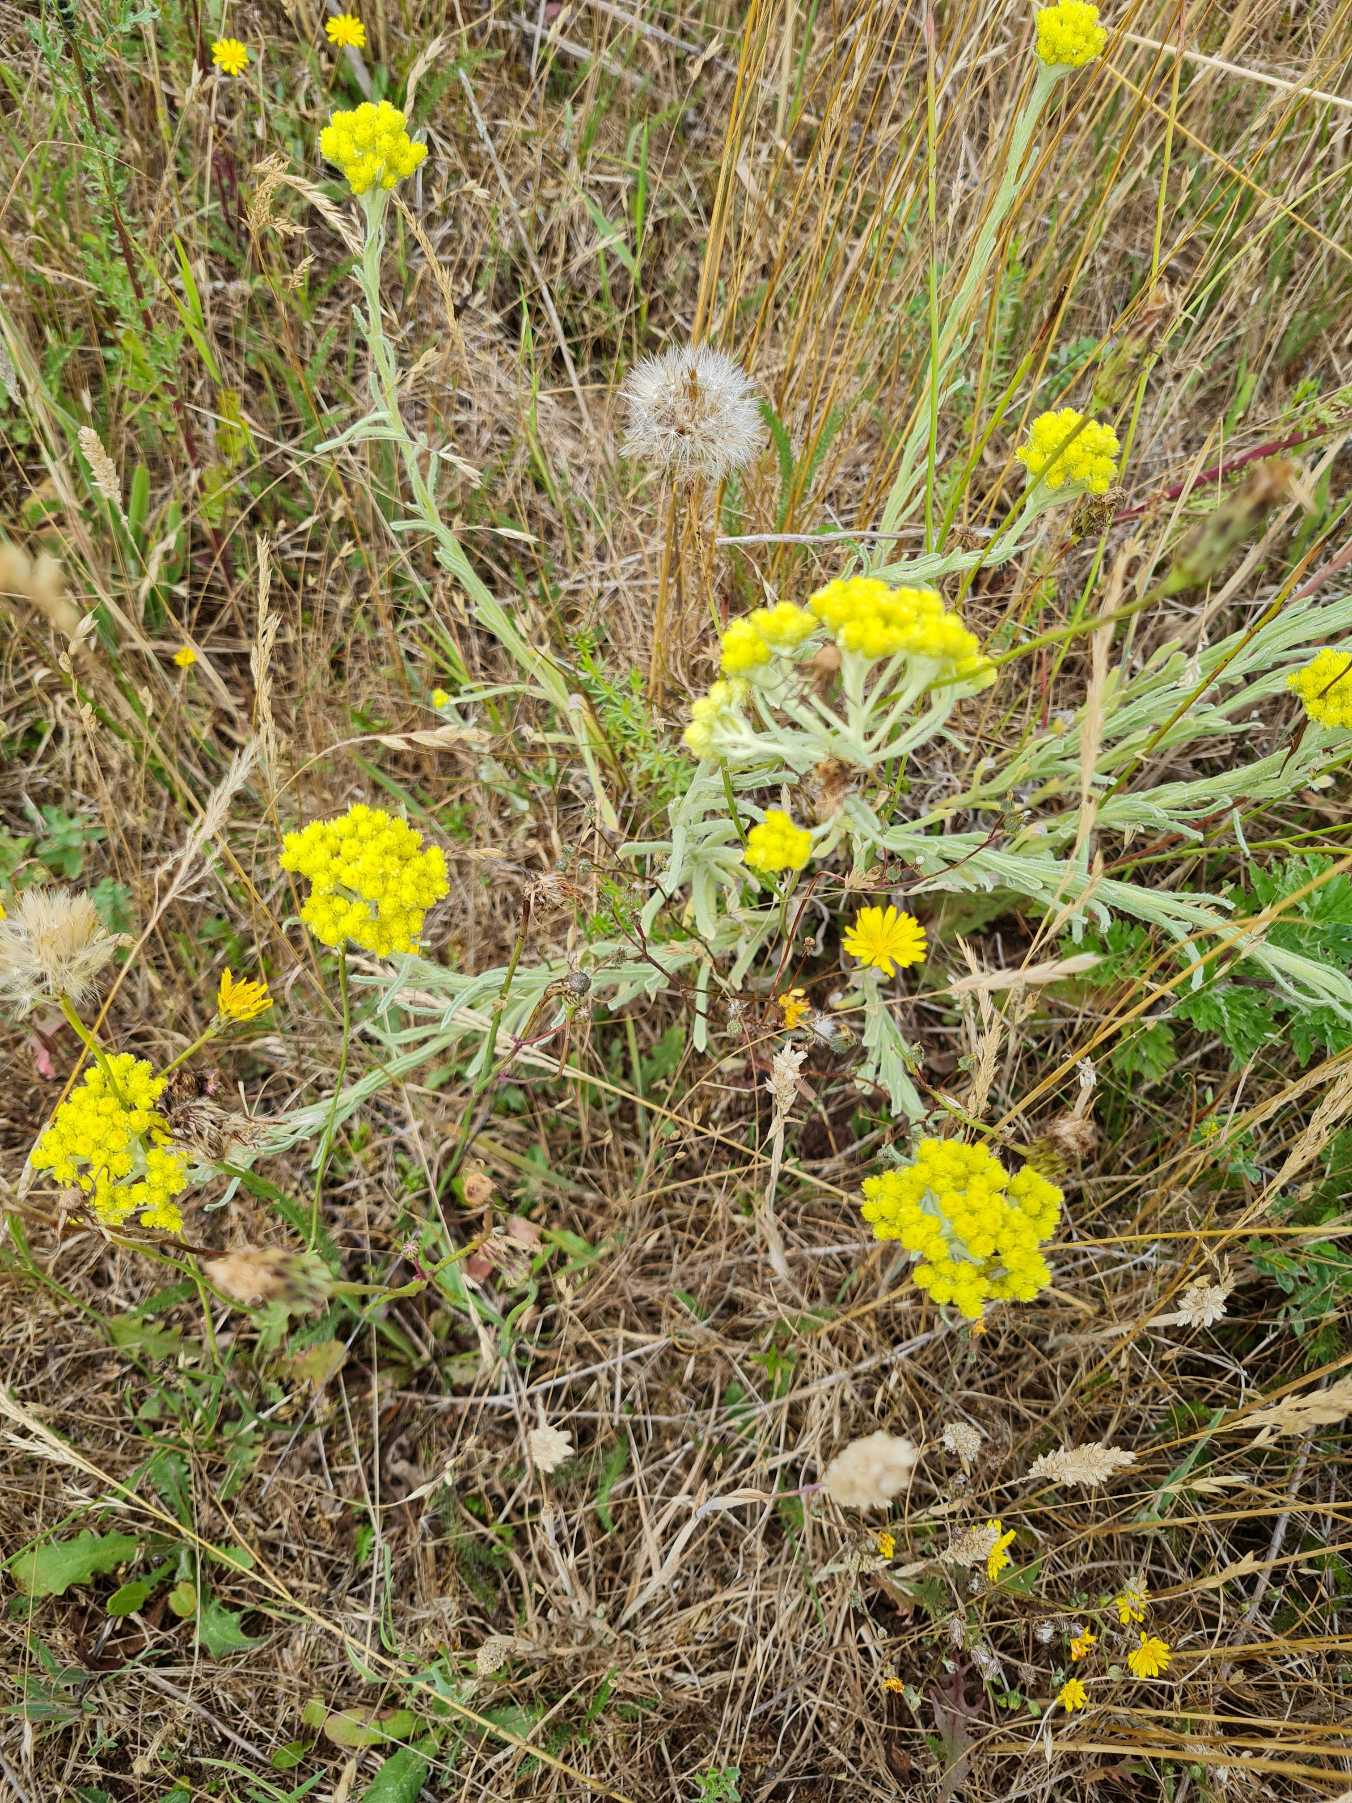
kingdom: Plantae
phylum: Tracheophyta
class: Magnoliopsida
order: Asterales
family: Asteraceae
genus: Helichrysum
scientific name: Helichrysum arenarium
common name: Gul evighedsblomst
